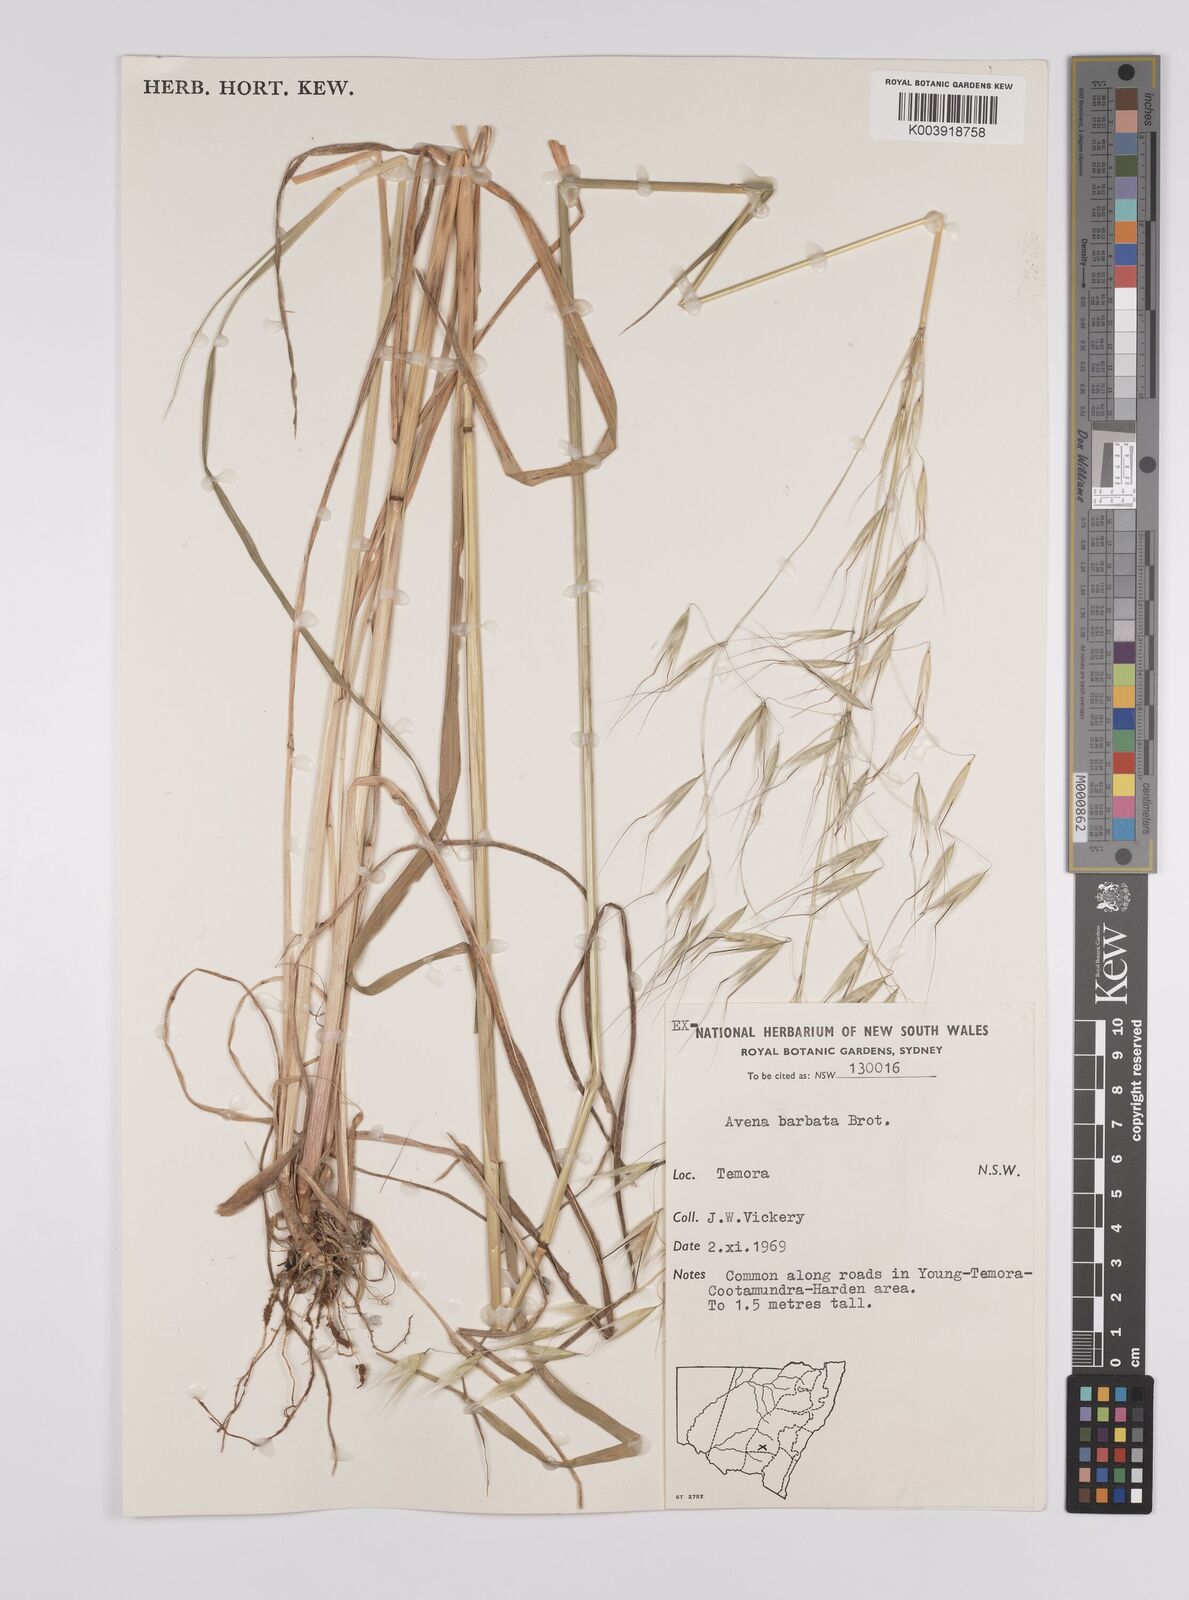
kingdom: Plantae
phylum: Tracheophyta
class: Liliopsida
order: Poales
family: Poaceae
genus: Avena
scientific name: Avena
